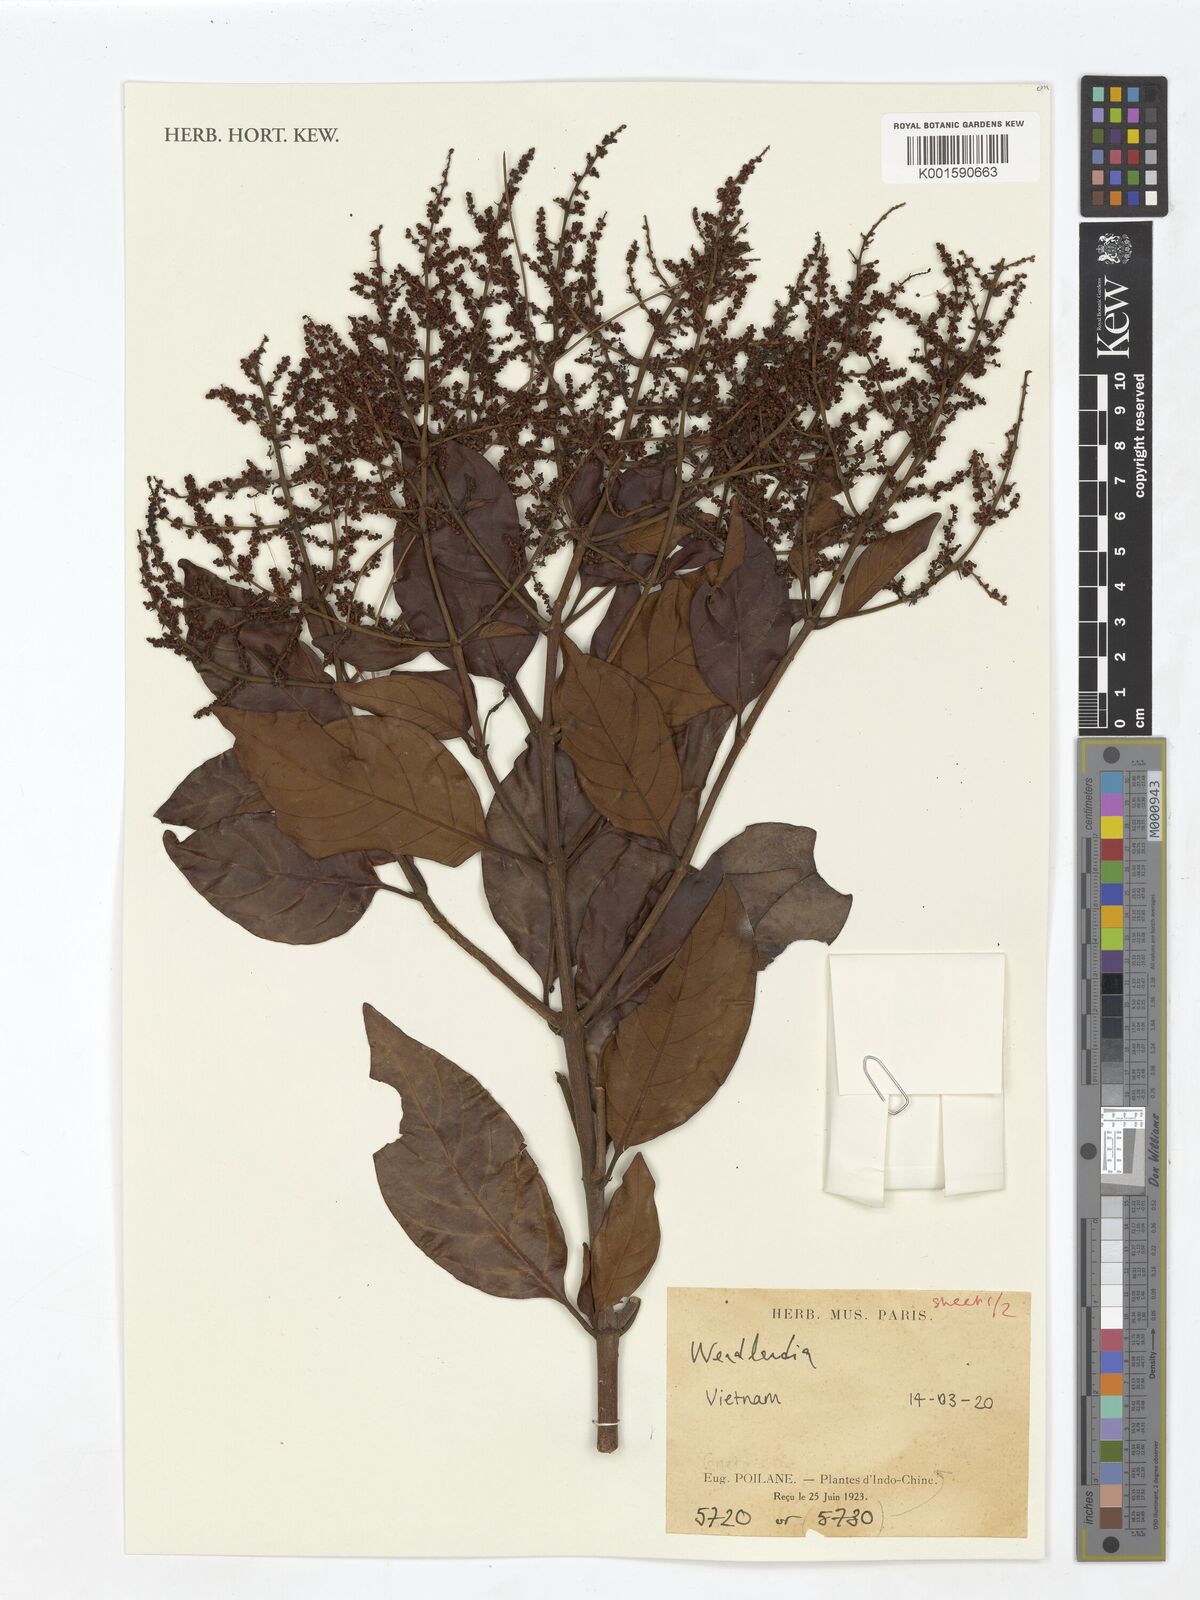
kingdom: Plantae
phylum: Tracheophyta
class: Magnoliopsida
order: Gentianales
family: Rubiaceae
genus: Wendlandia
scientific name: Wendlandia
